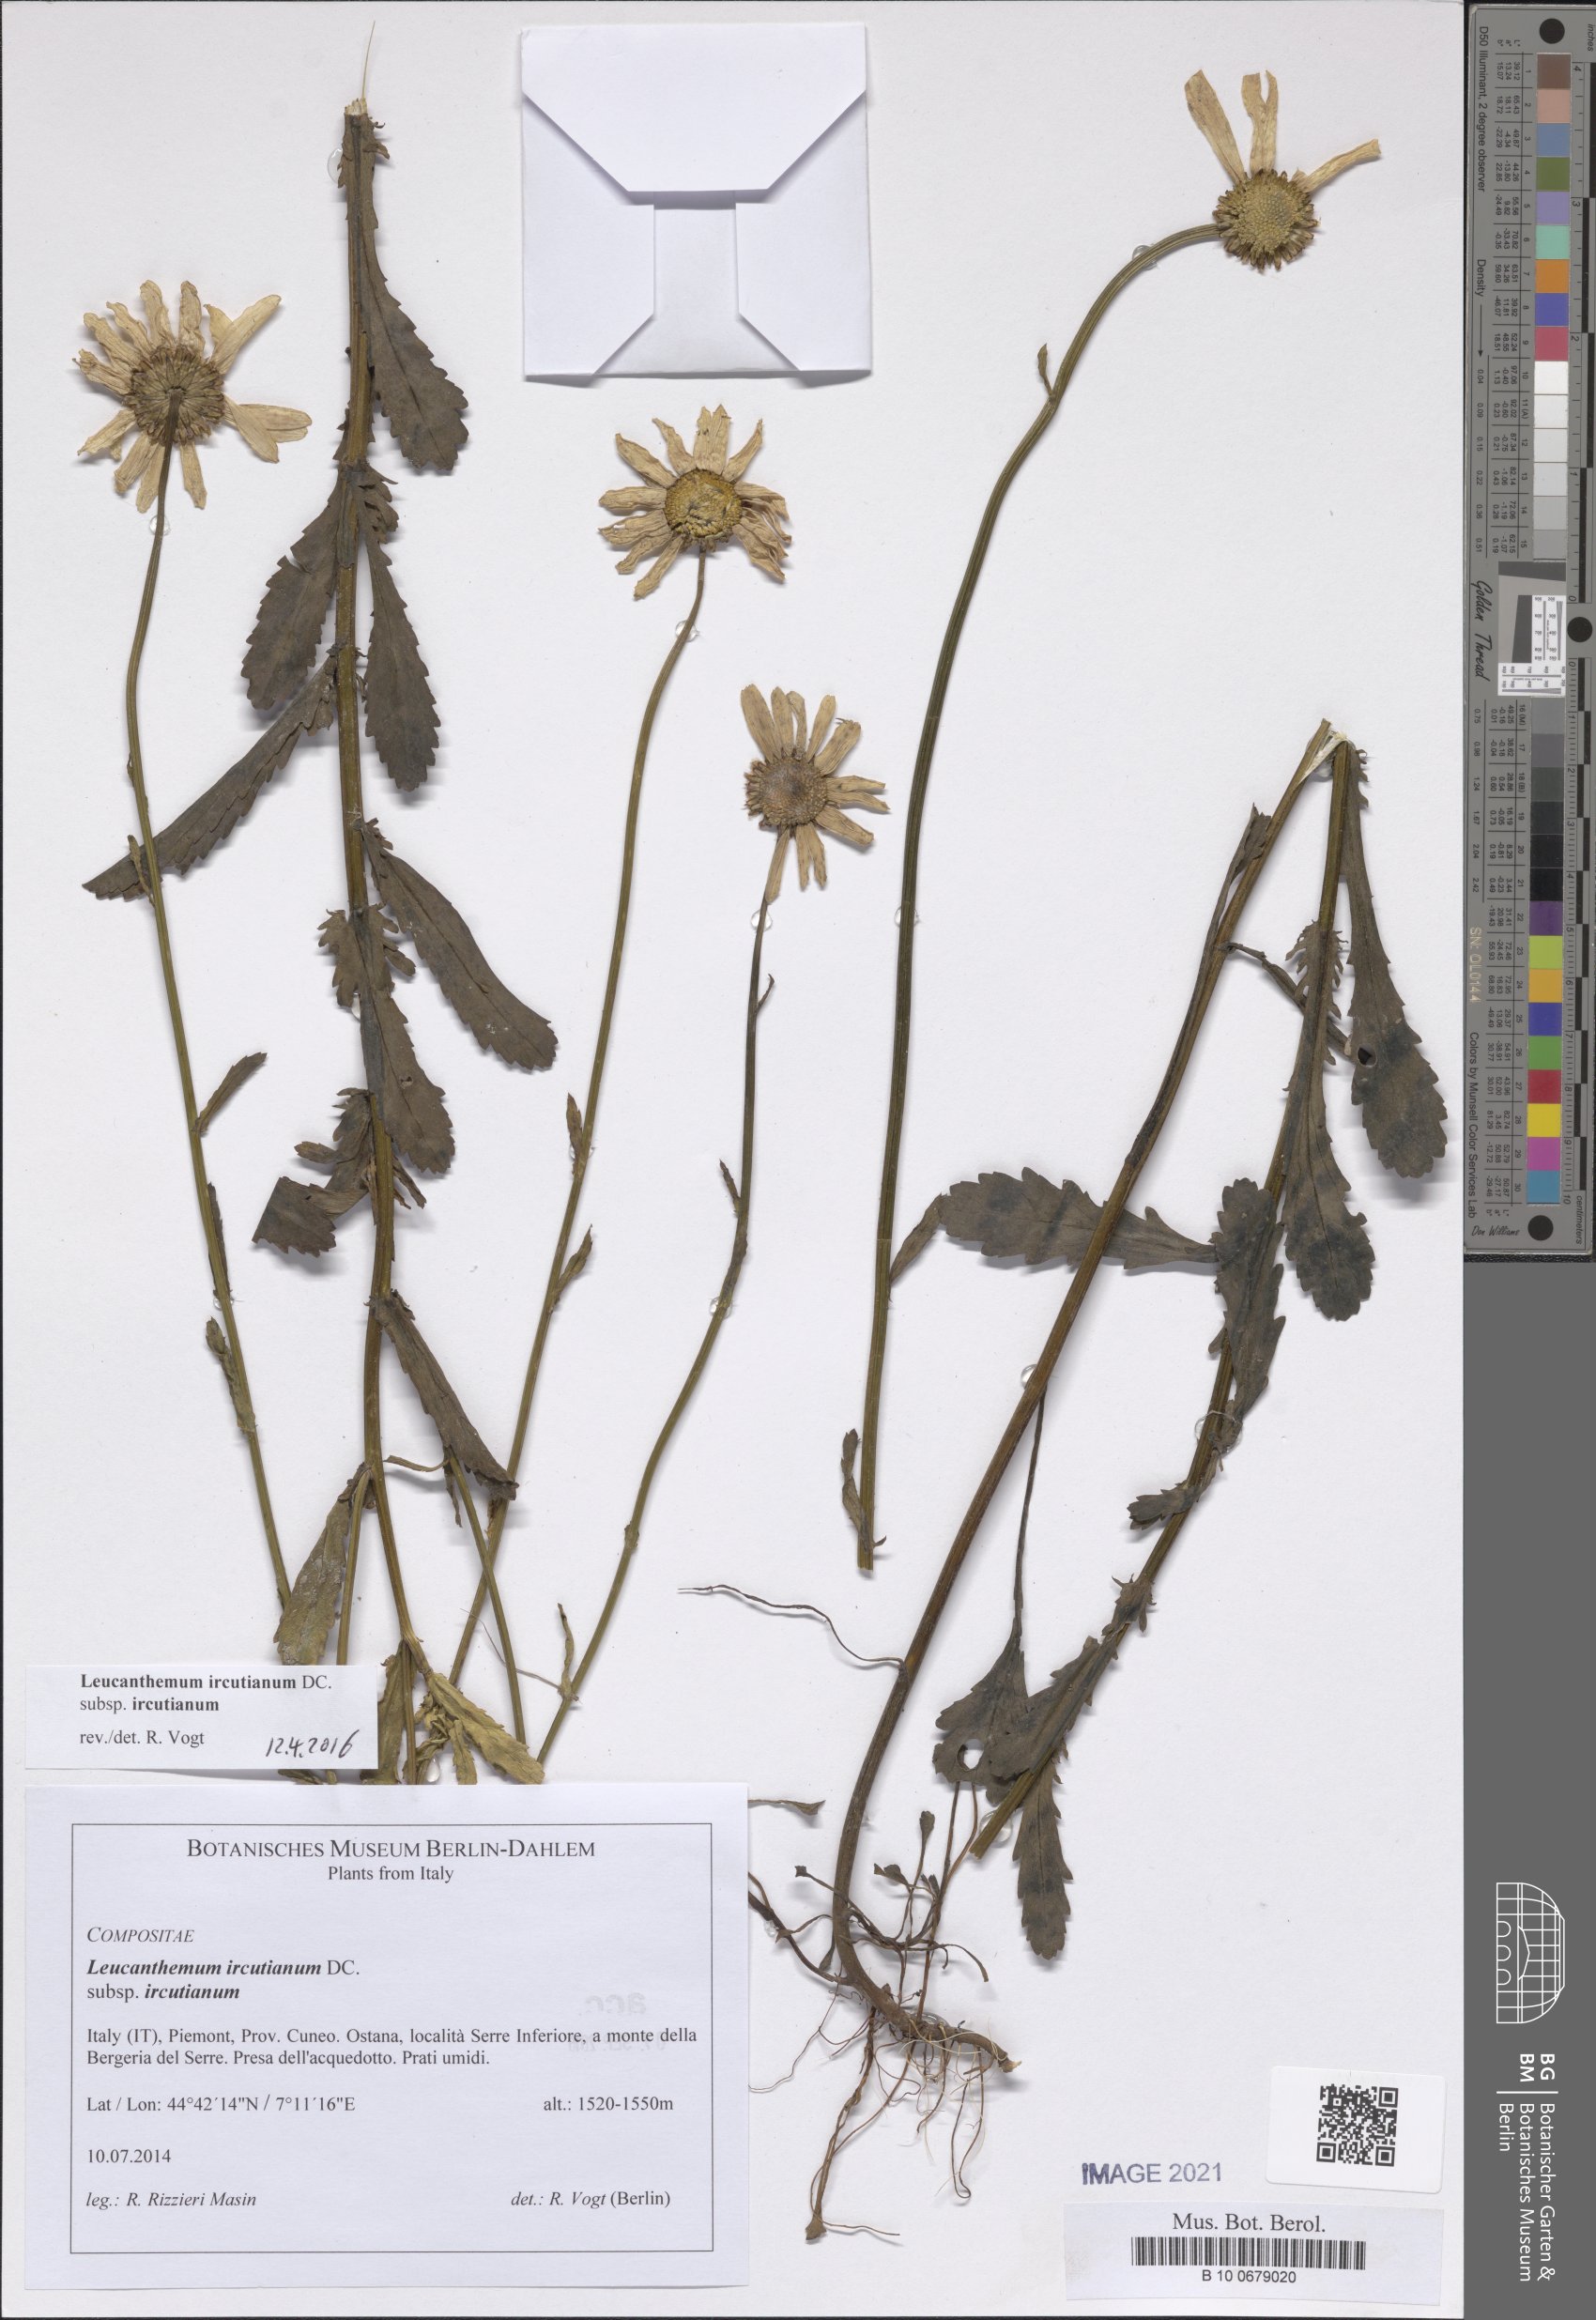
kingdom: Plantae
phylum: Tracheophyta
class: Magnoliopsida
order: Asterales
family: Asteraceae
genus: Leucanthemum
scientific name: Leucanthemum ircutianum
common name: Daisy
